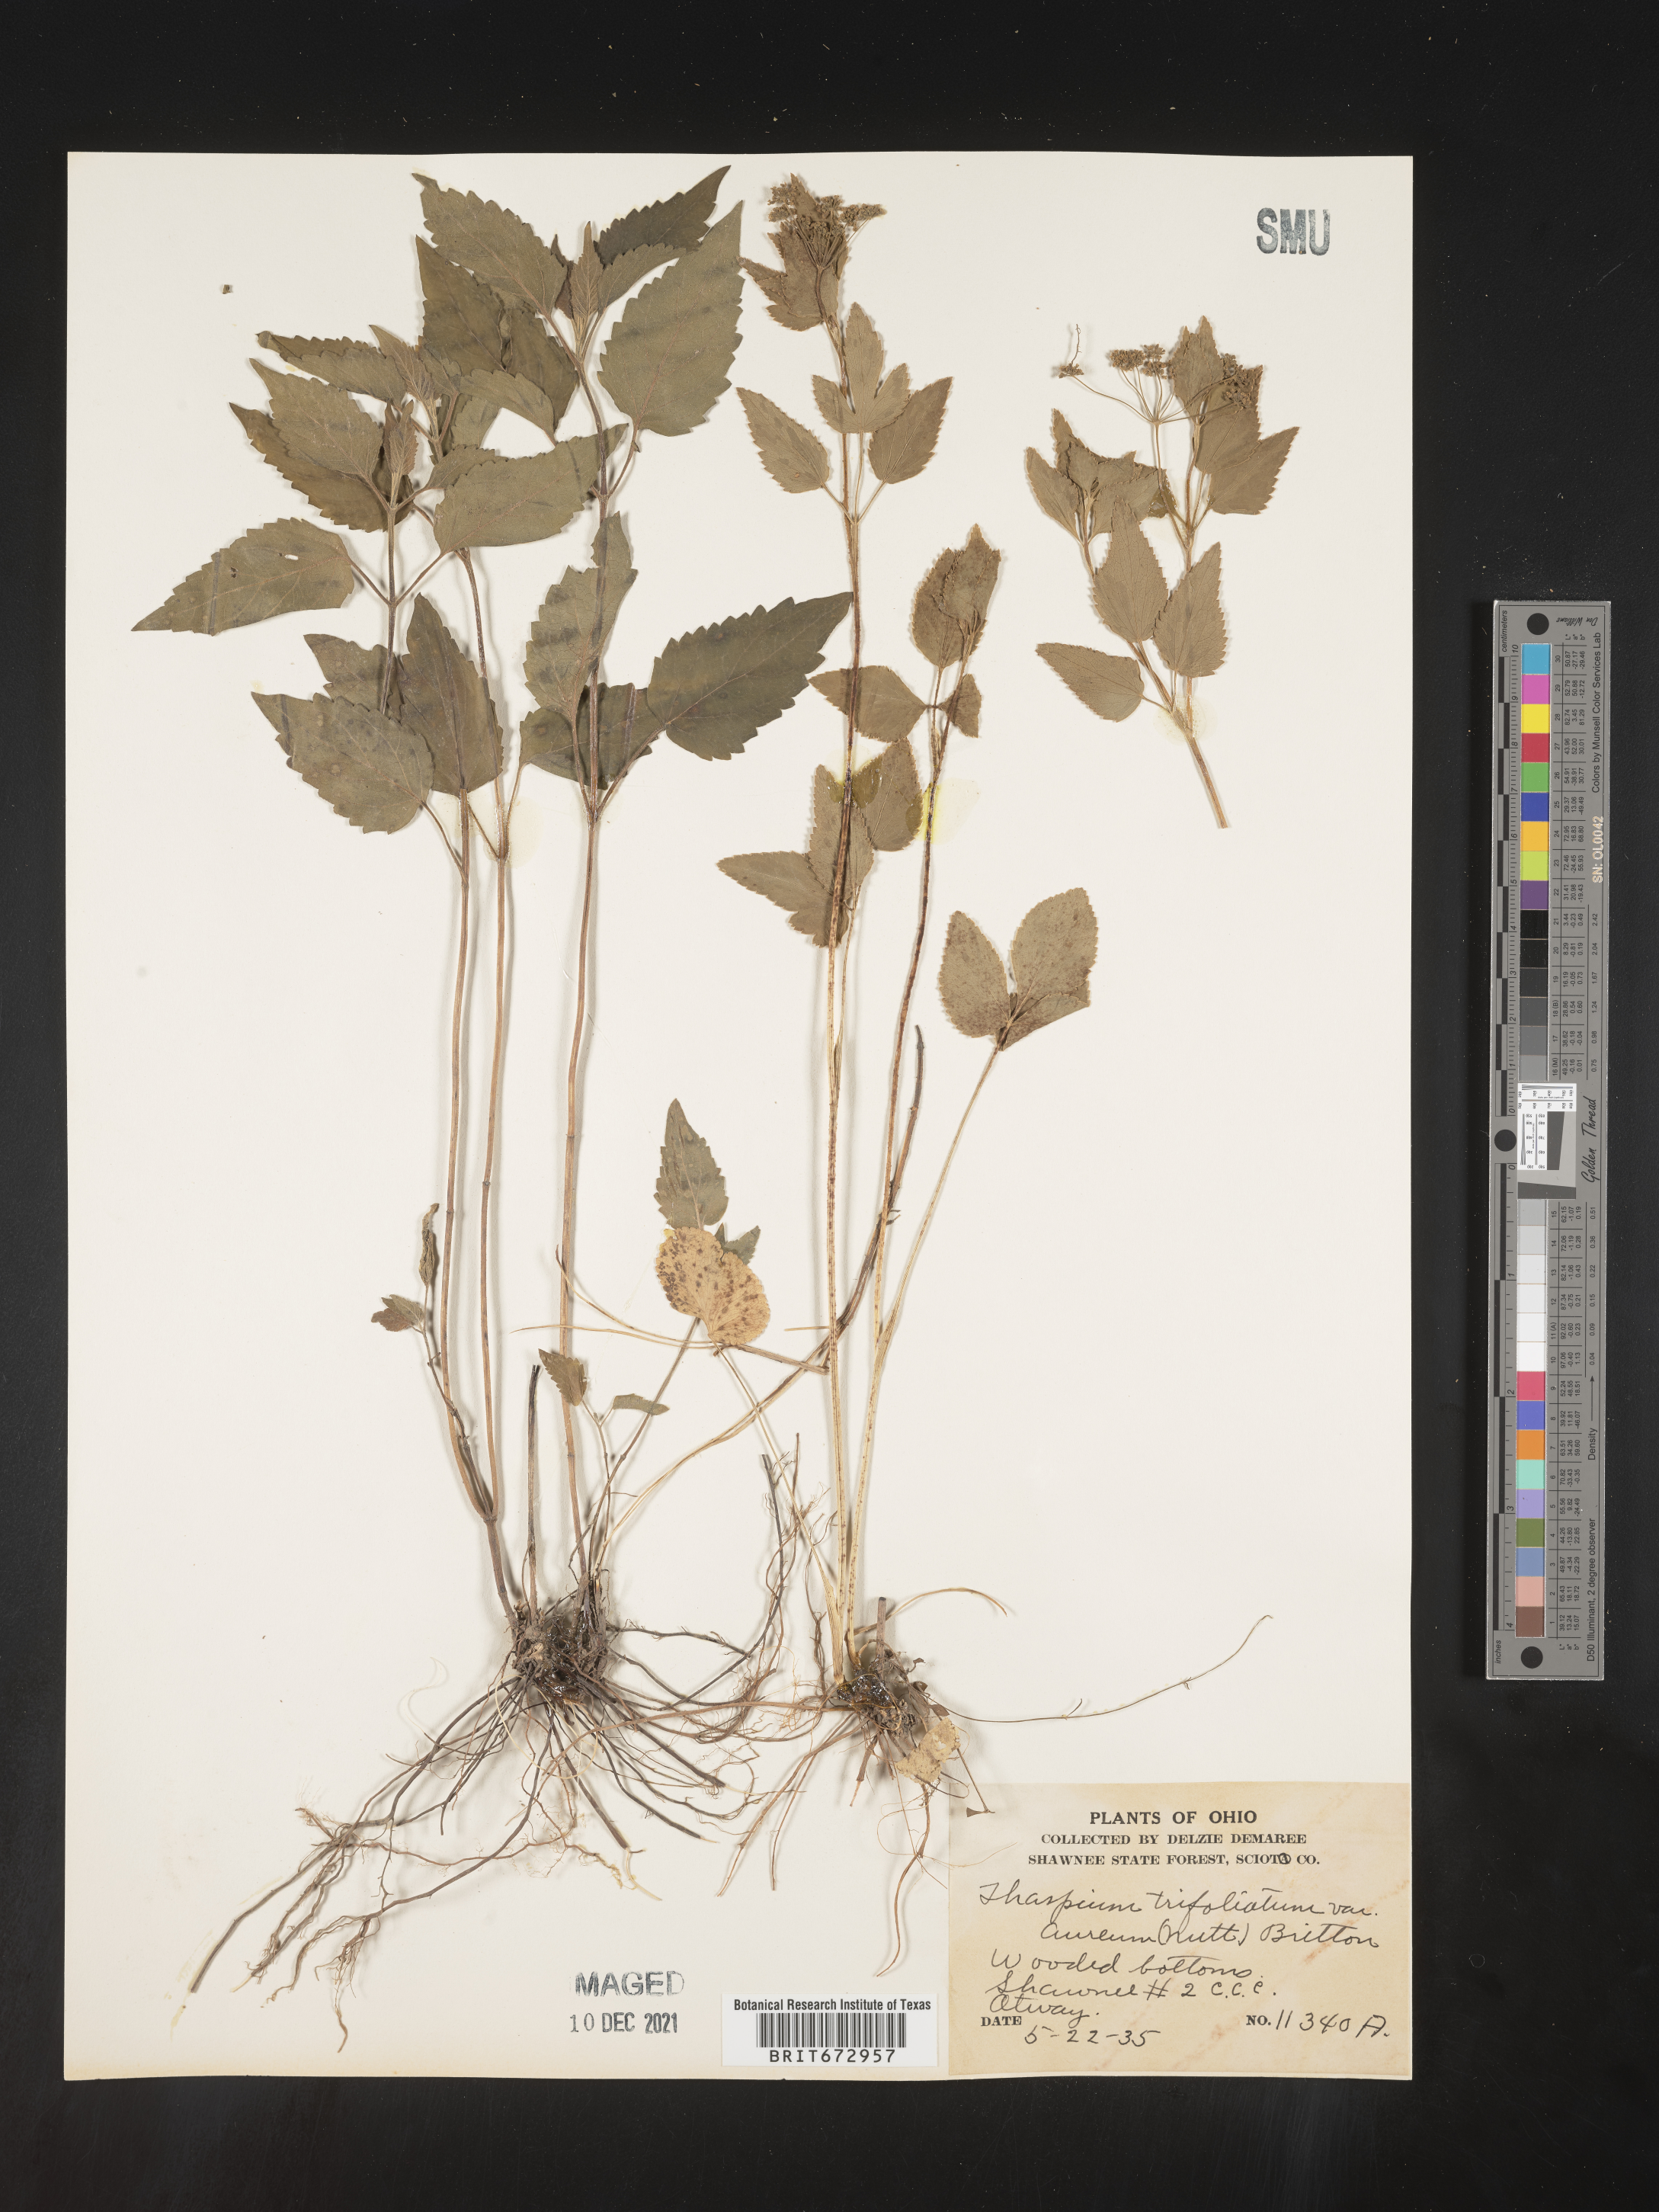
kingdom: Plantae
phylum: Tracheophyta
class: Magnoliopsida
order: Apiales
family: Apiaceae
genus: Thaspium
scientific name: Thaspium
